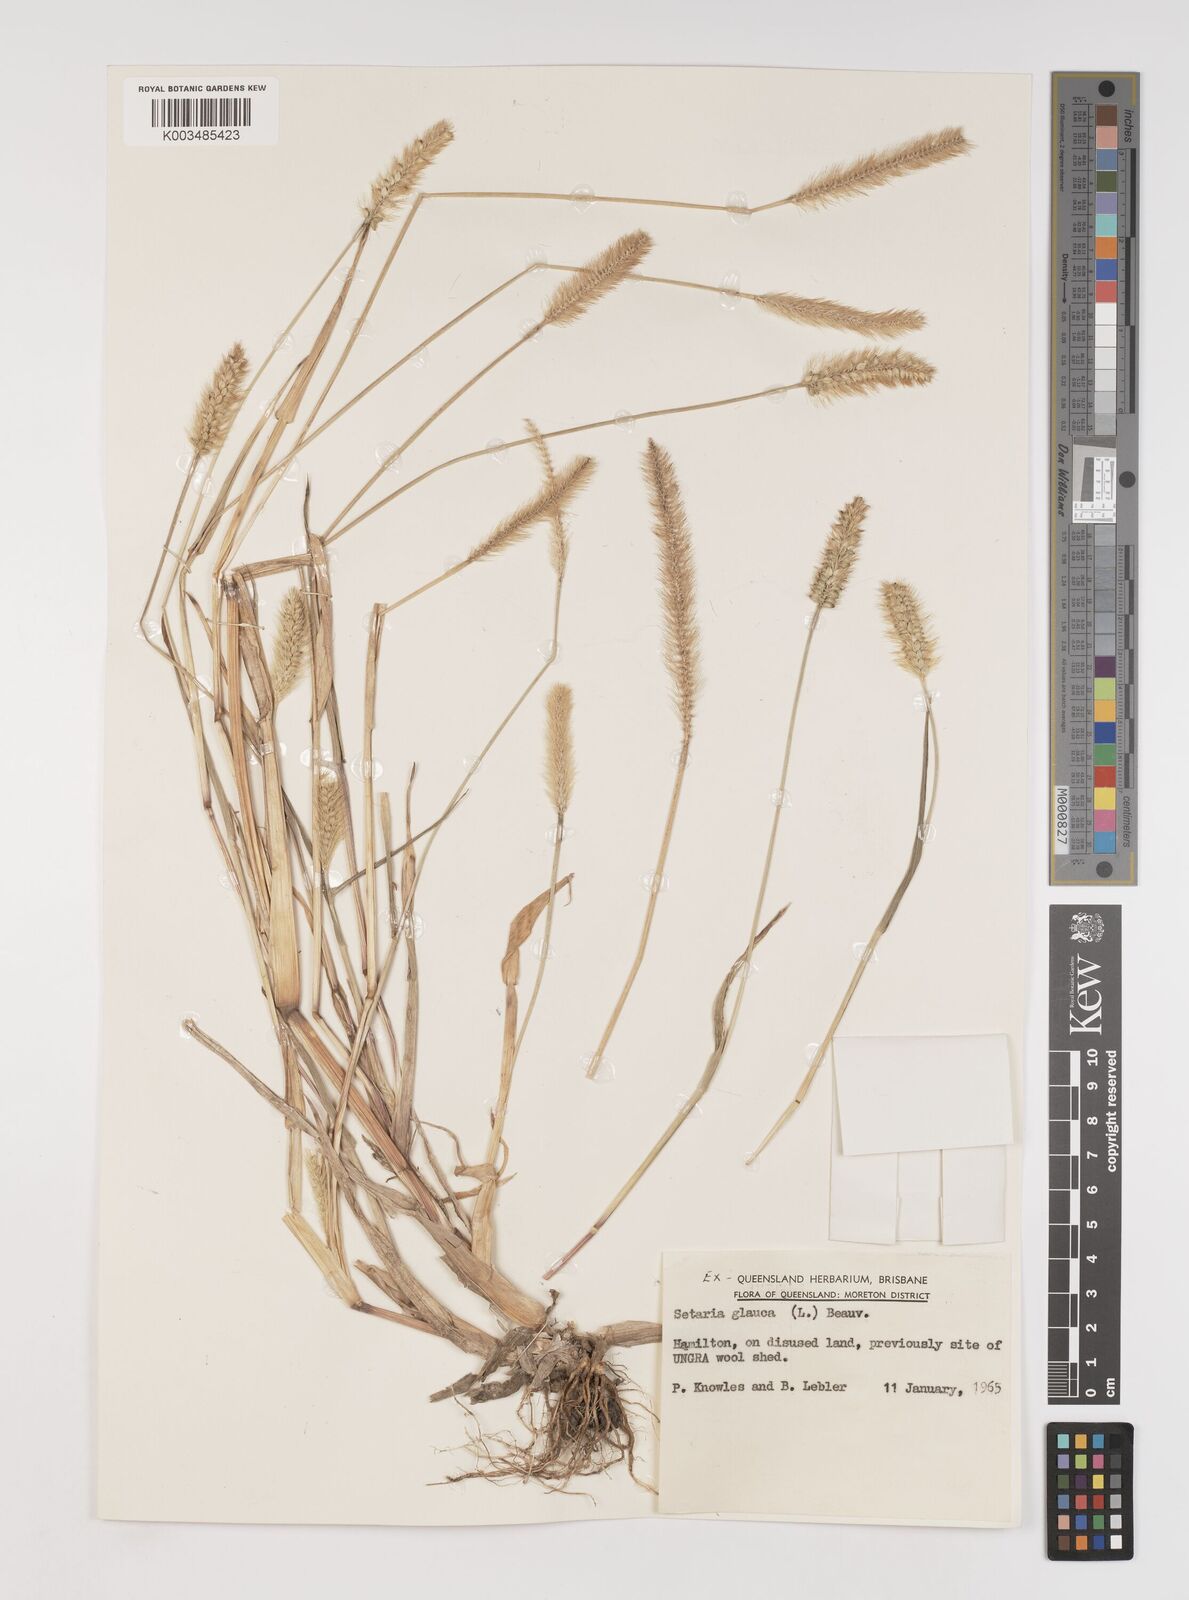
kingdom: Plantae
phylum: Tracheophyta
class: Liliopsida
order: Poales
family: Poaceae
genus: Setaria
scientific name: Setaria pumila
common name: Yellow bristle-grass
